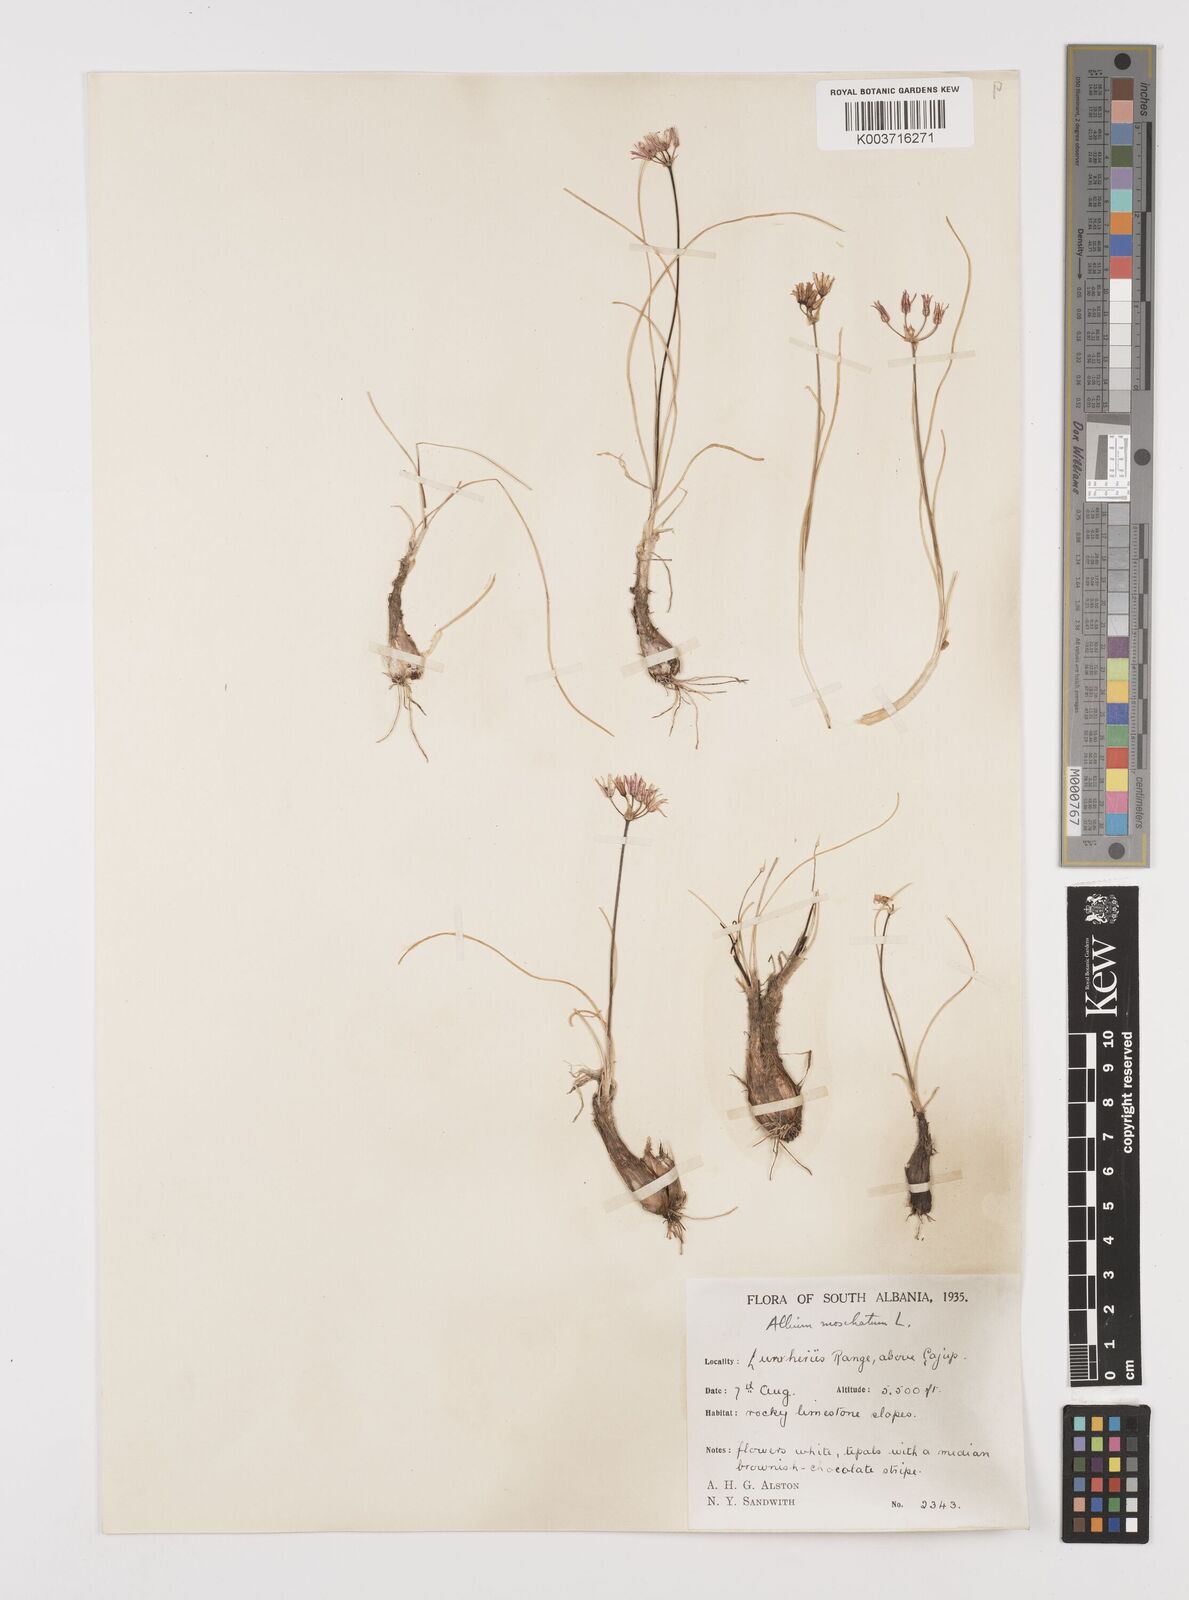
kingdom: Plantae
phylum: Tracheophyta
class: Liliopsida
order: Asparagales
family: Amaryllidaceae
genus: Allium
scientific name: Allium moschatum
